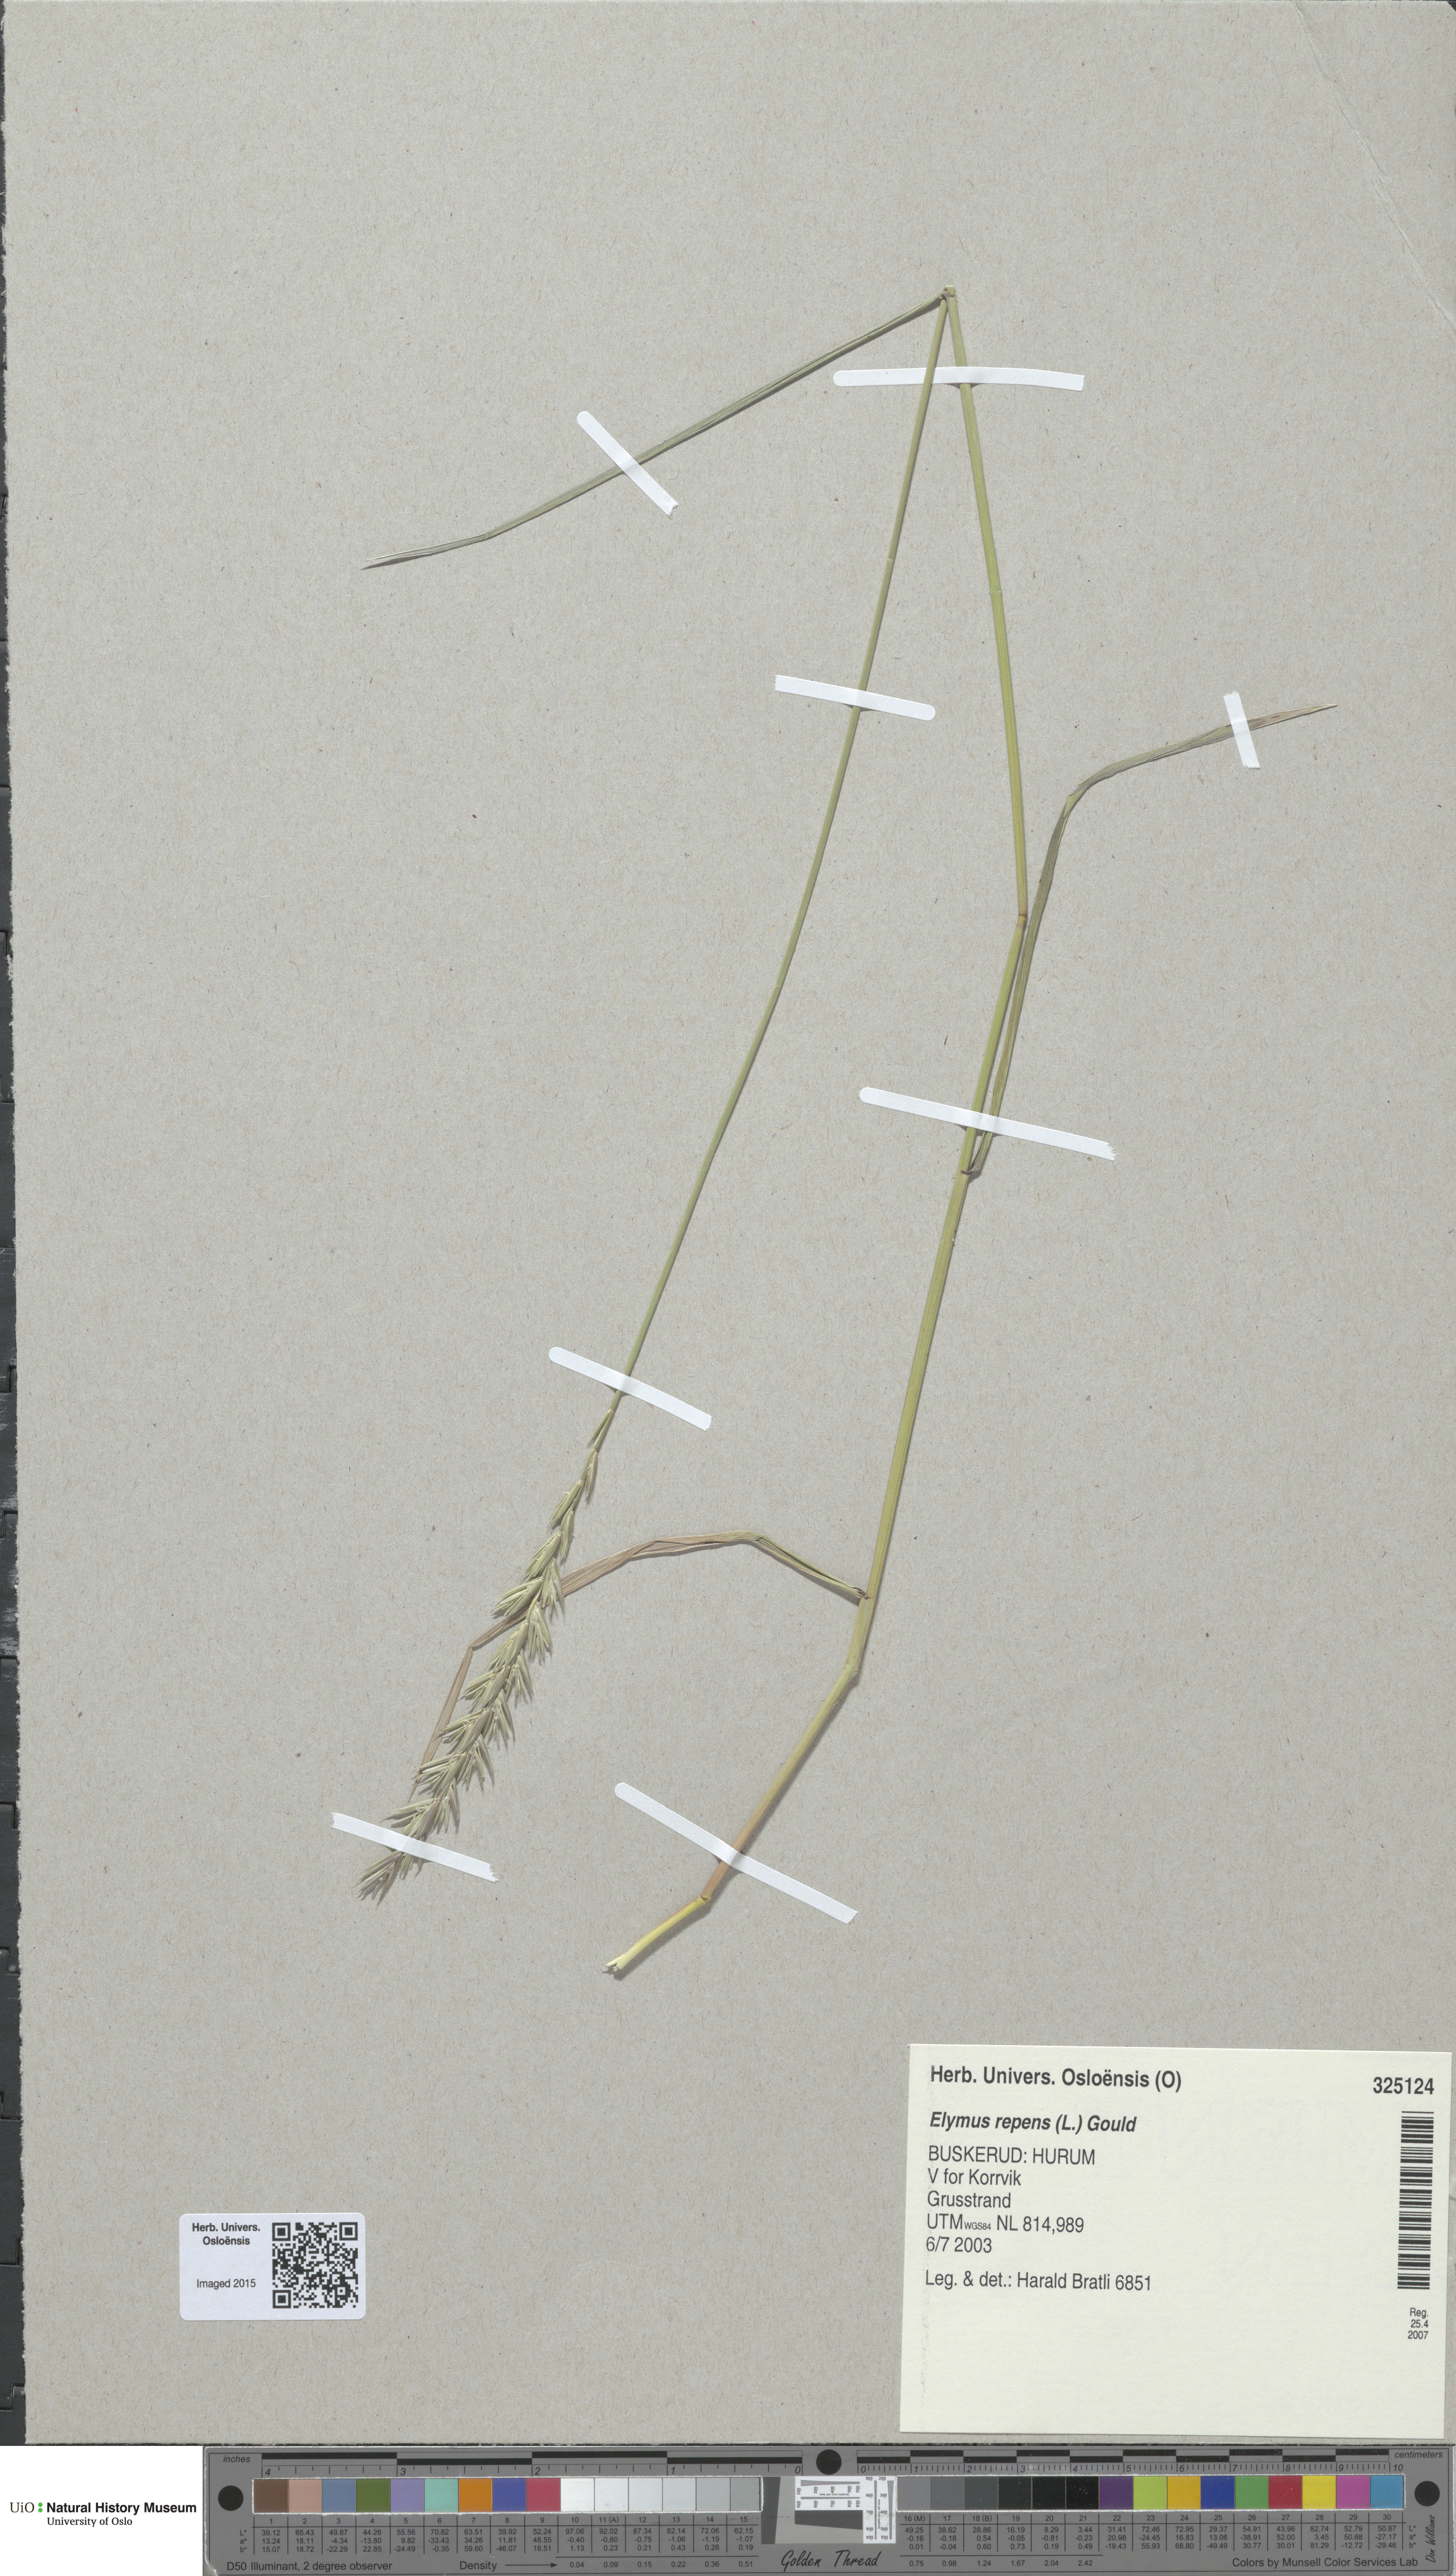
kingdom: Plantae
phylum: Tracheophyta
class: Liliopsida
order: Poales
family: Poaceae
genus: Elymus
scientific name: Elymus repens
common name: Quackgrass
